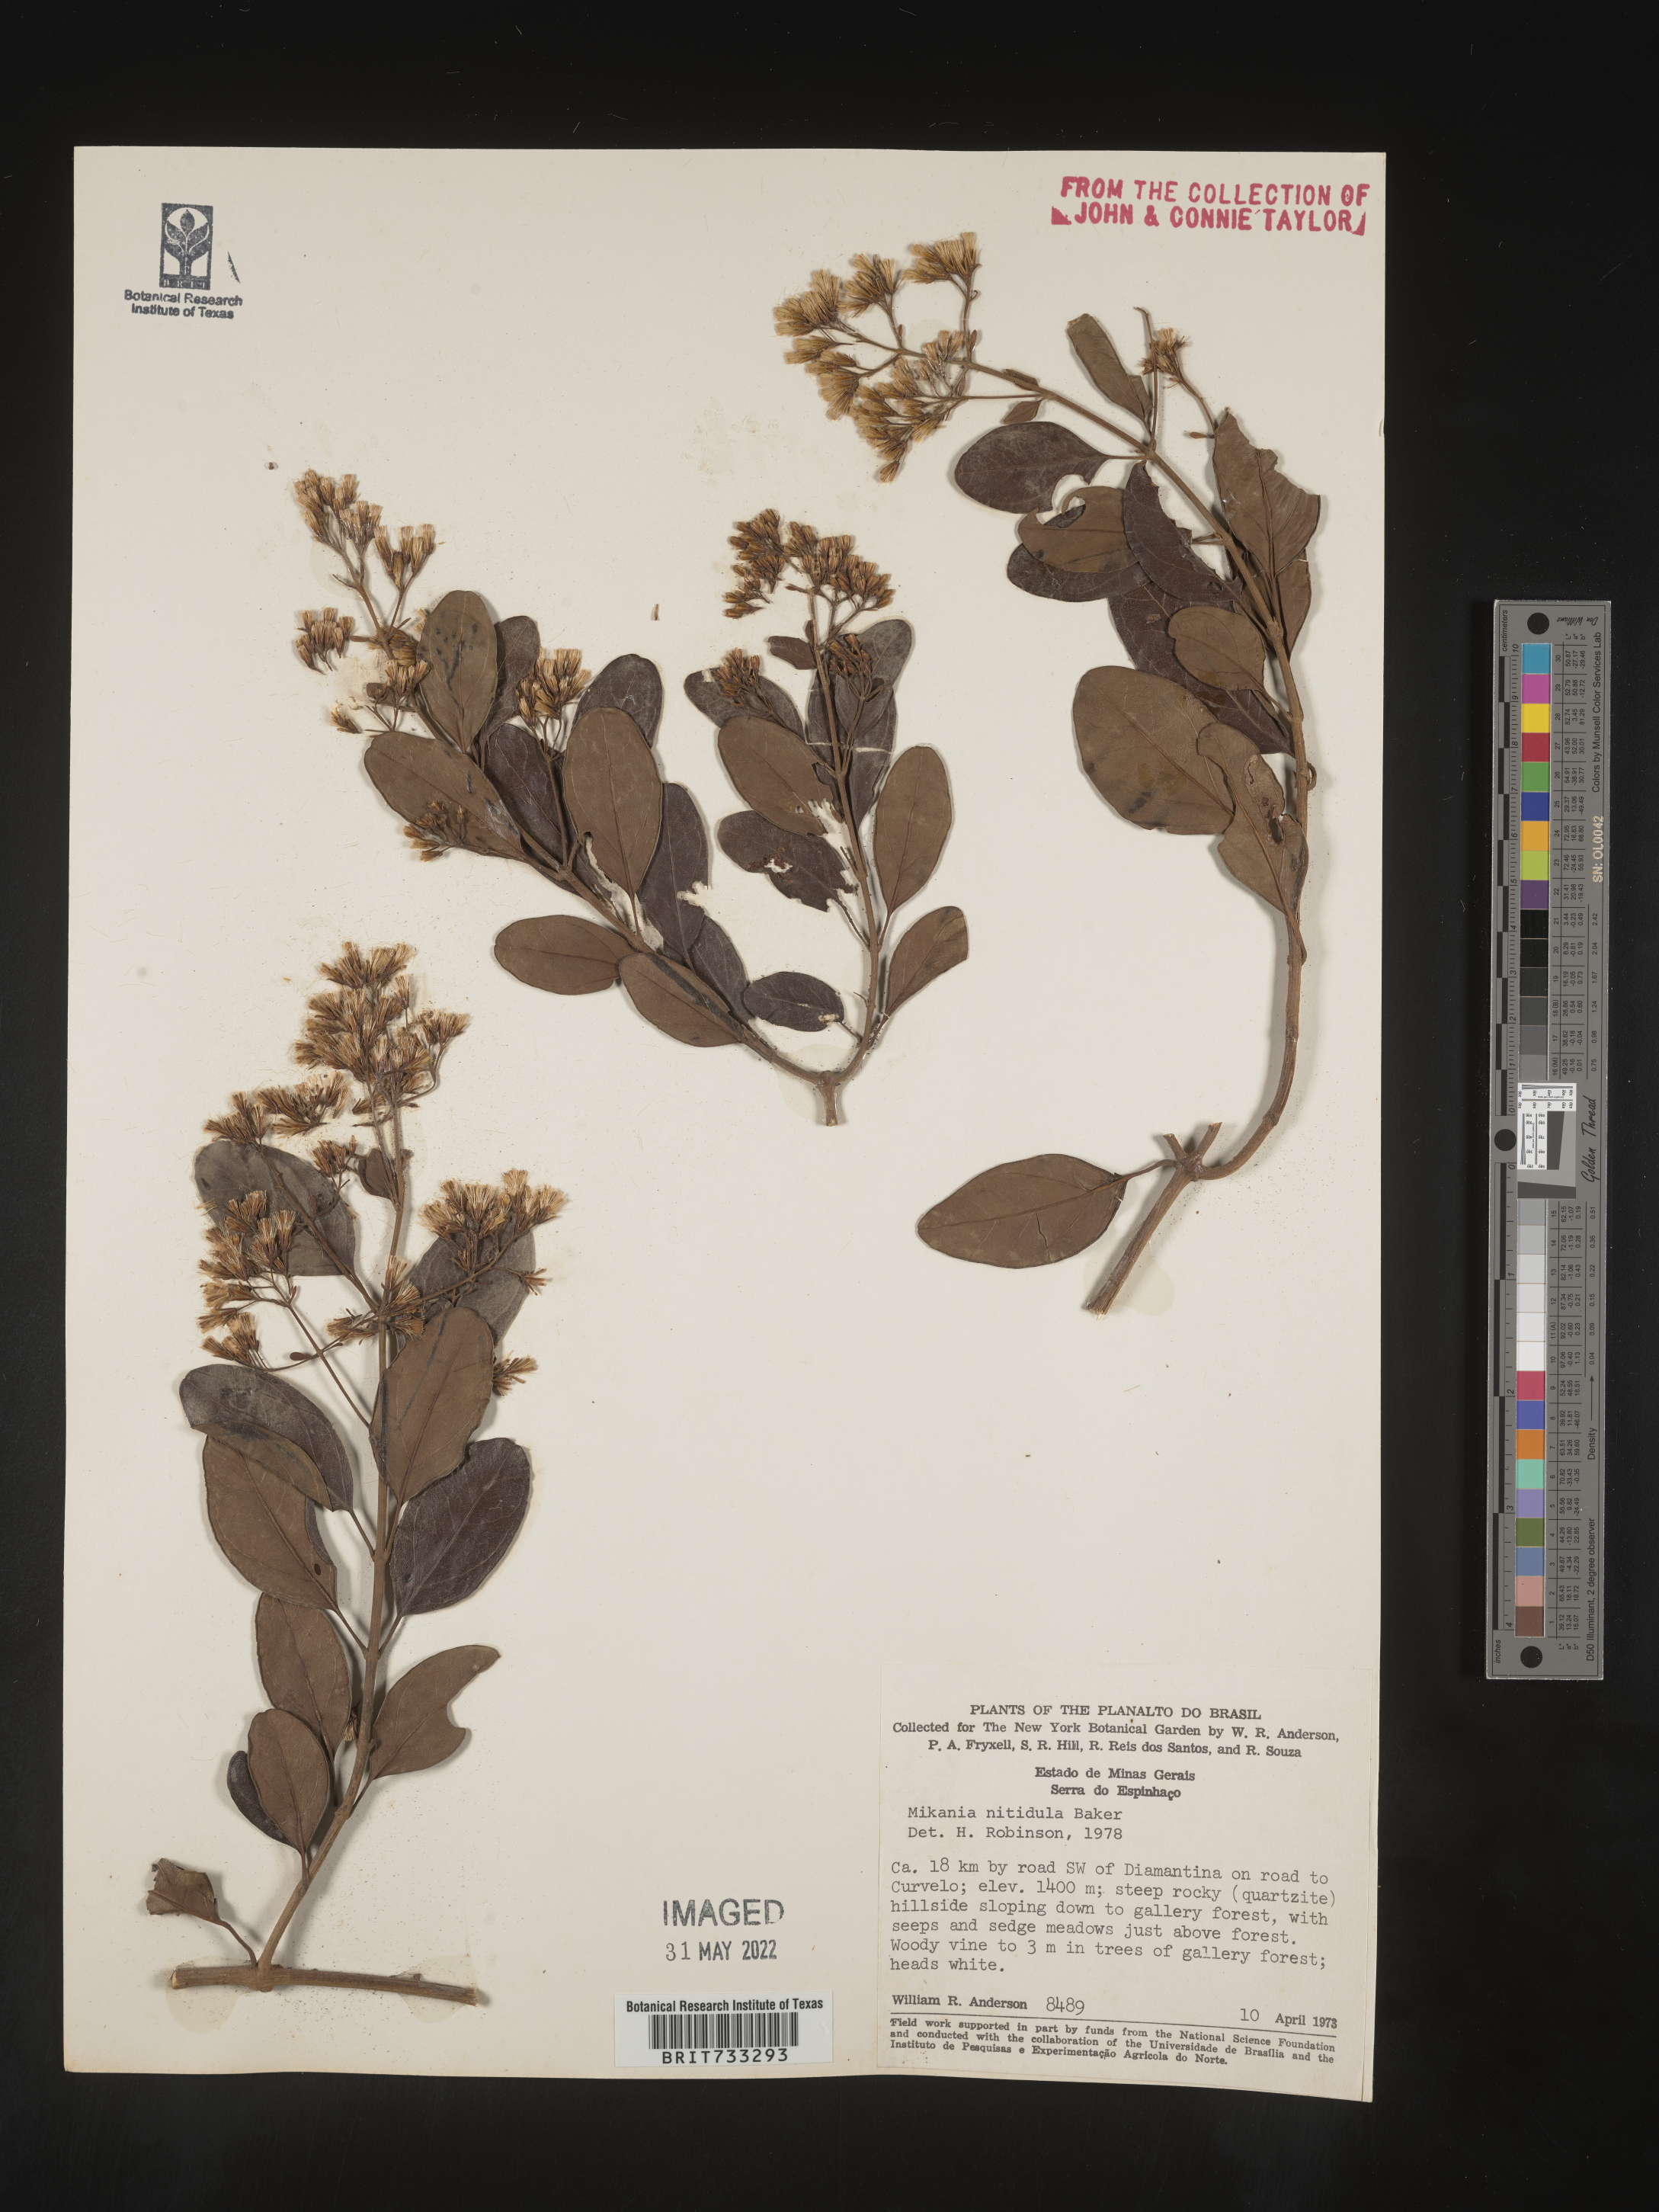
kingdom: Plantae
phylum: Tracheophyta
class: Magnoliopsida
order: Asterales
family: Asteraceae
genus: Mikania
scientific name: Mikania
